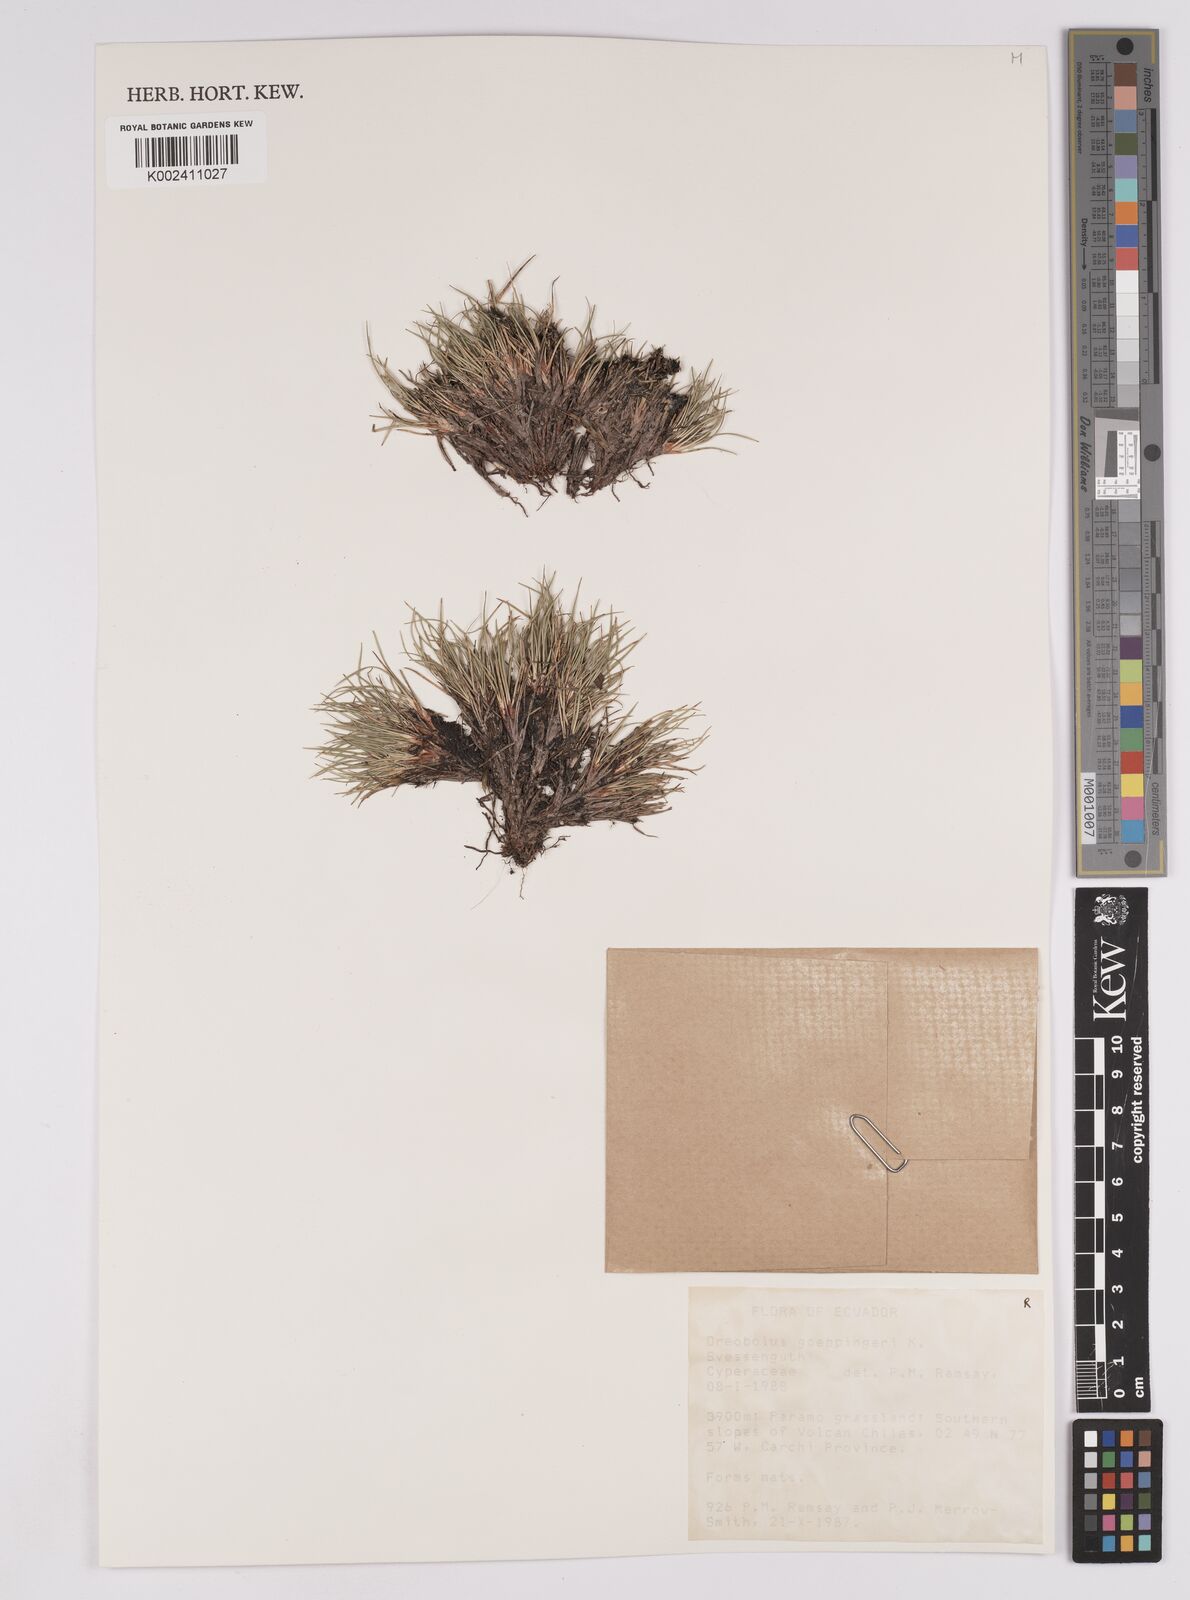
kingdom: Plantae
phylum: Tracheophyta
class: Liliopsida
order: Poales
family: Cyperaceae
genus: Oreobolus
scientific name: Oreobolus goeppingeri
